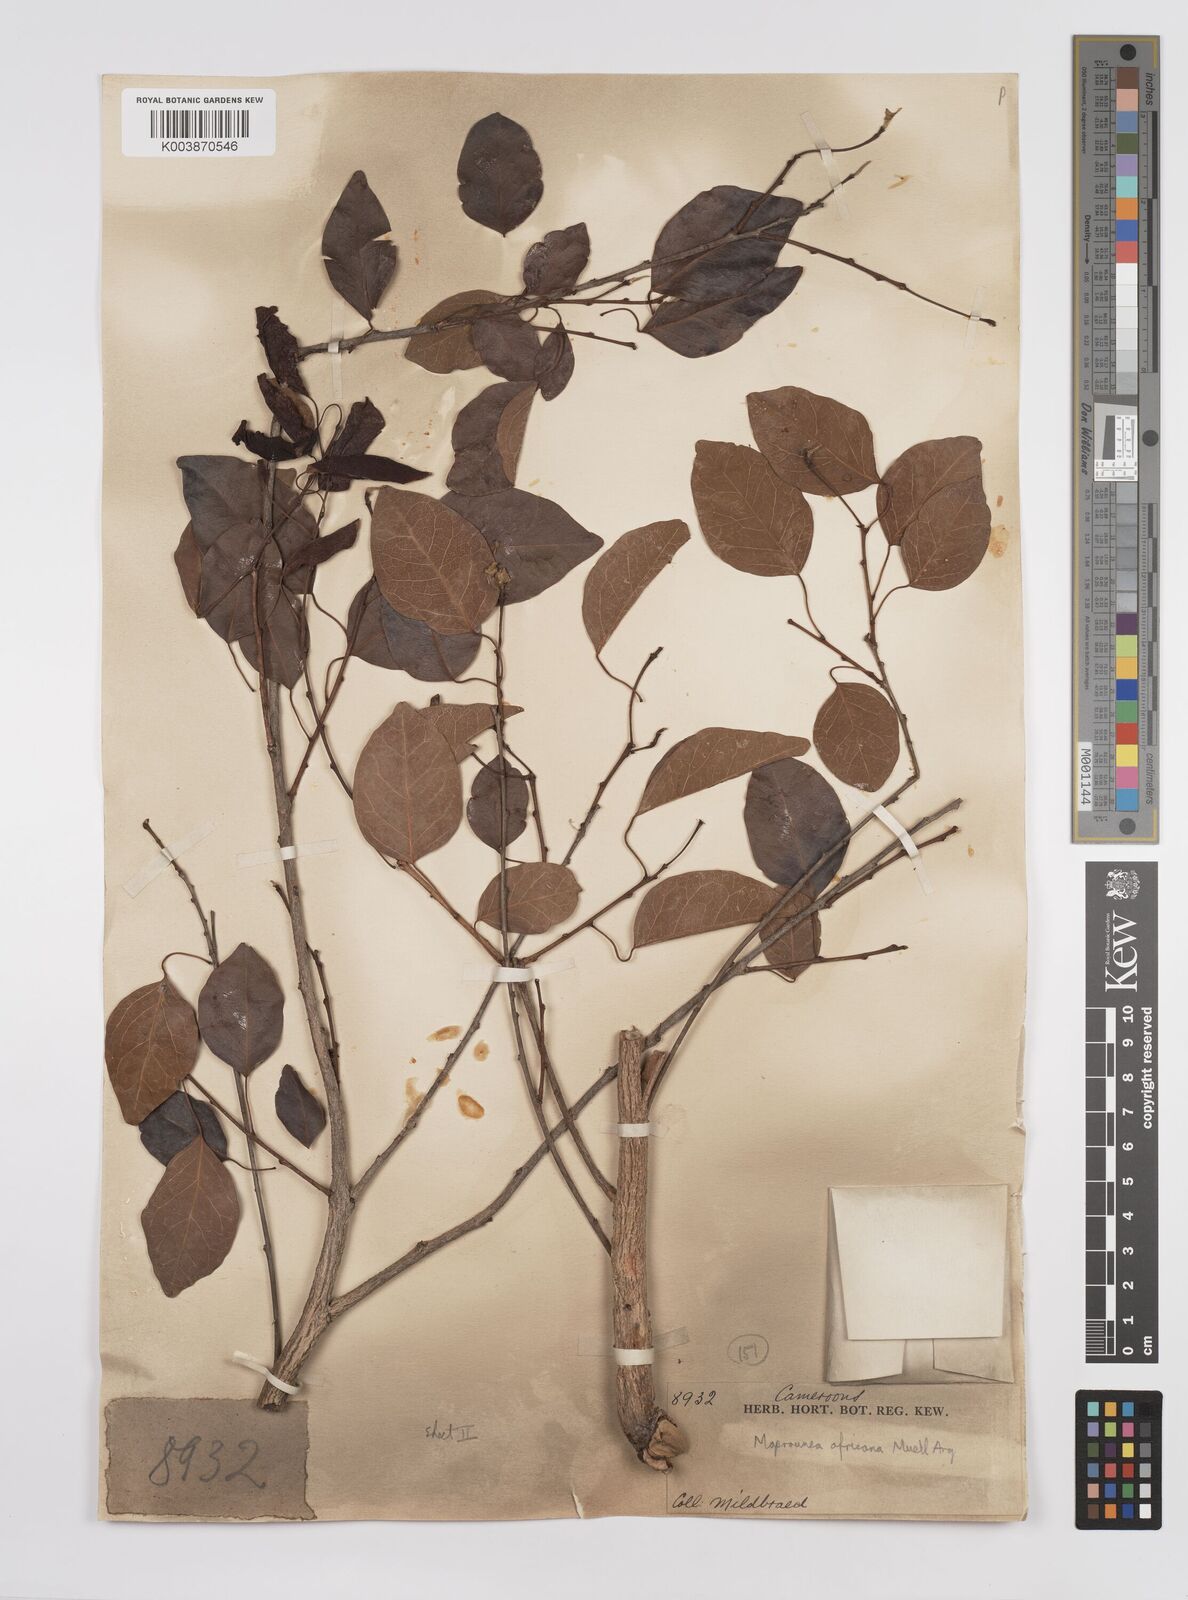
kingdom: Plantae
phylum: Tracheophyta
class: Magnoliopsida
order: Malpighiales
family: Euphorbiaceae
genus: Maprounea
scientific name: Maprounea africana
